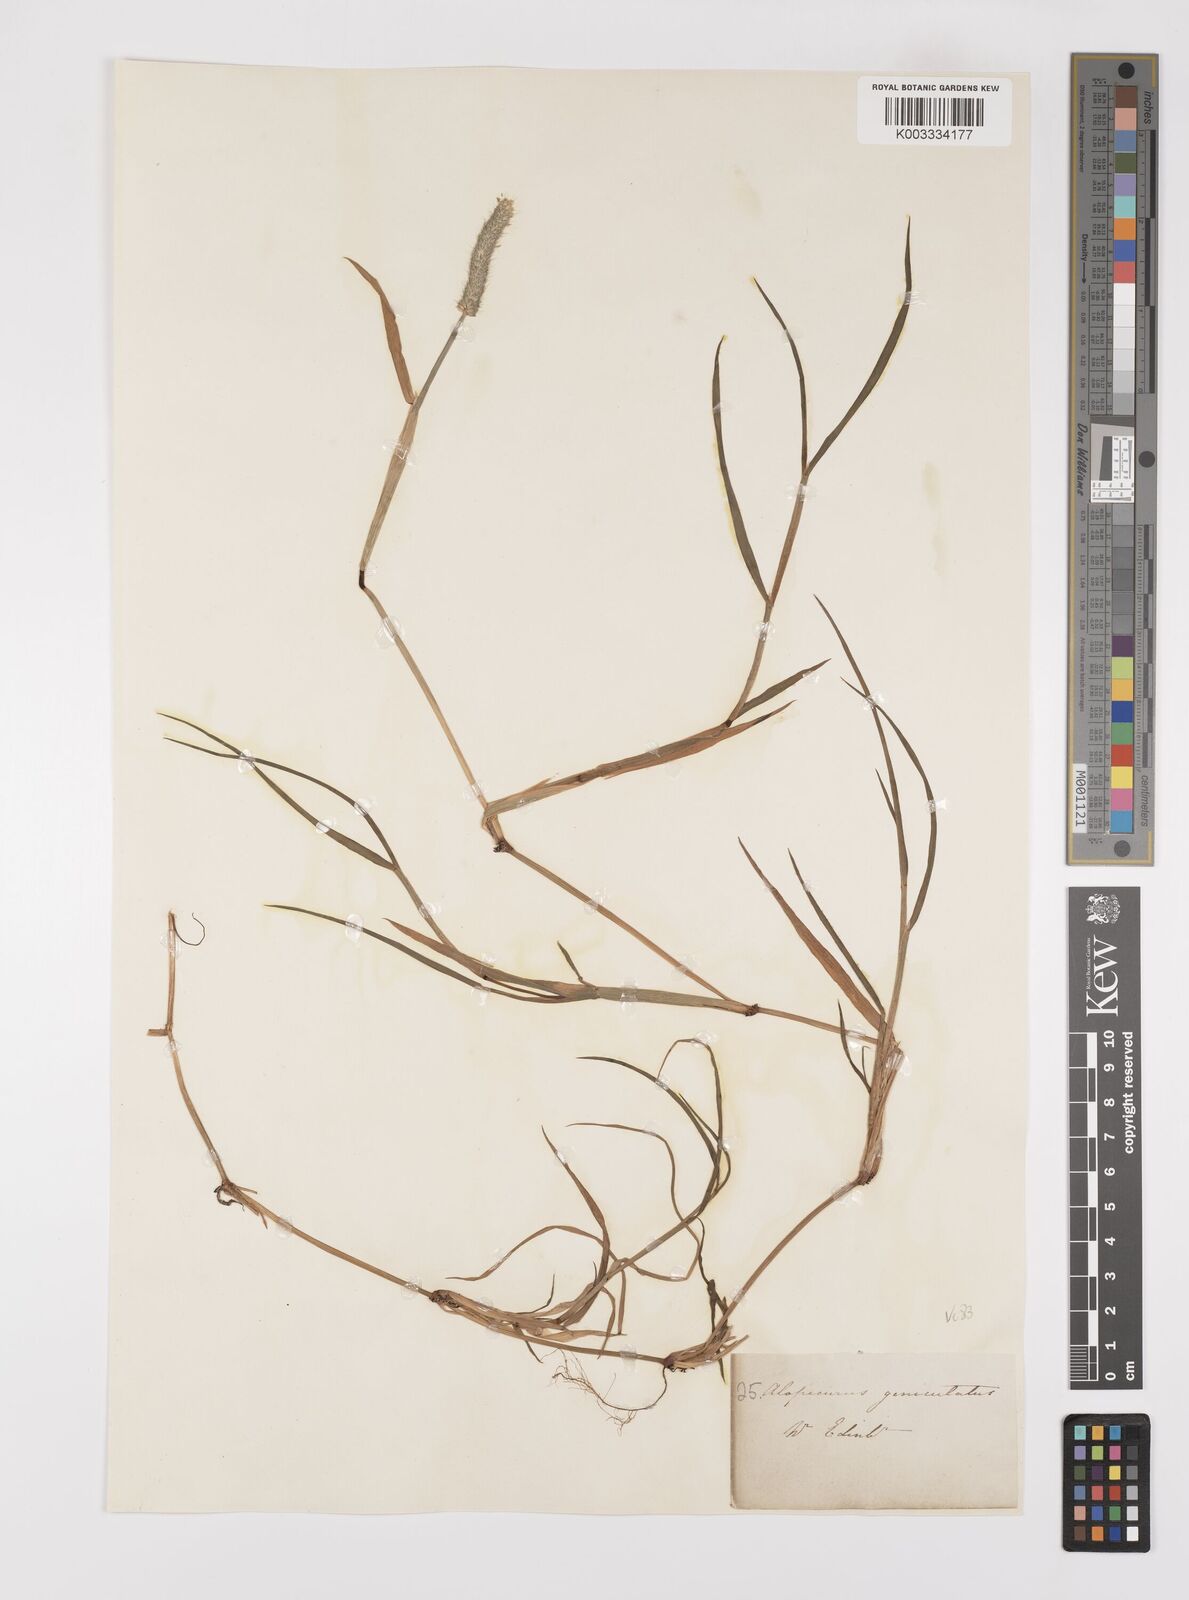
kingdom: Plantae
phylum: Tracheophyta
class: Liliopsida
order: Poales
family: Poaceae
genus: Alopecurus
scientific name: Alopecurus geniculatus
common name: Water foxtail
